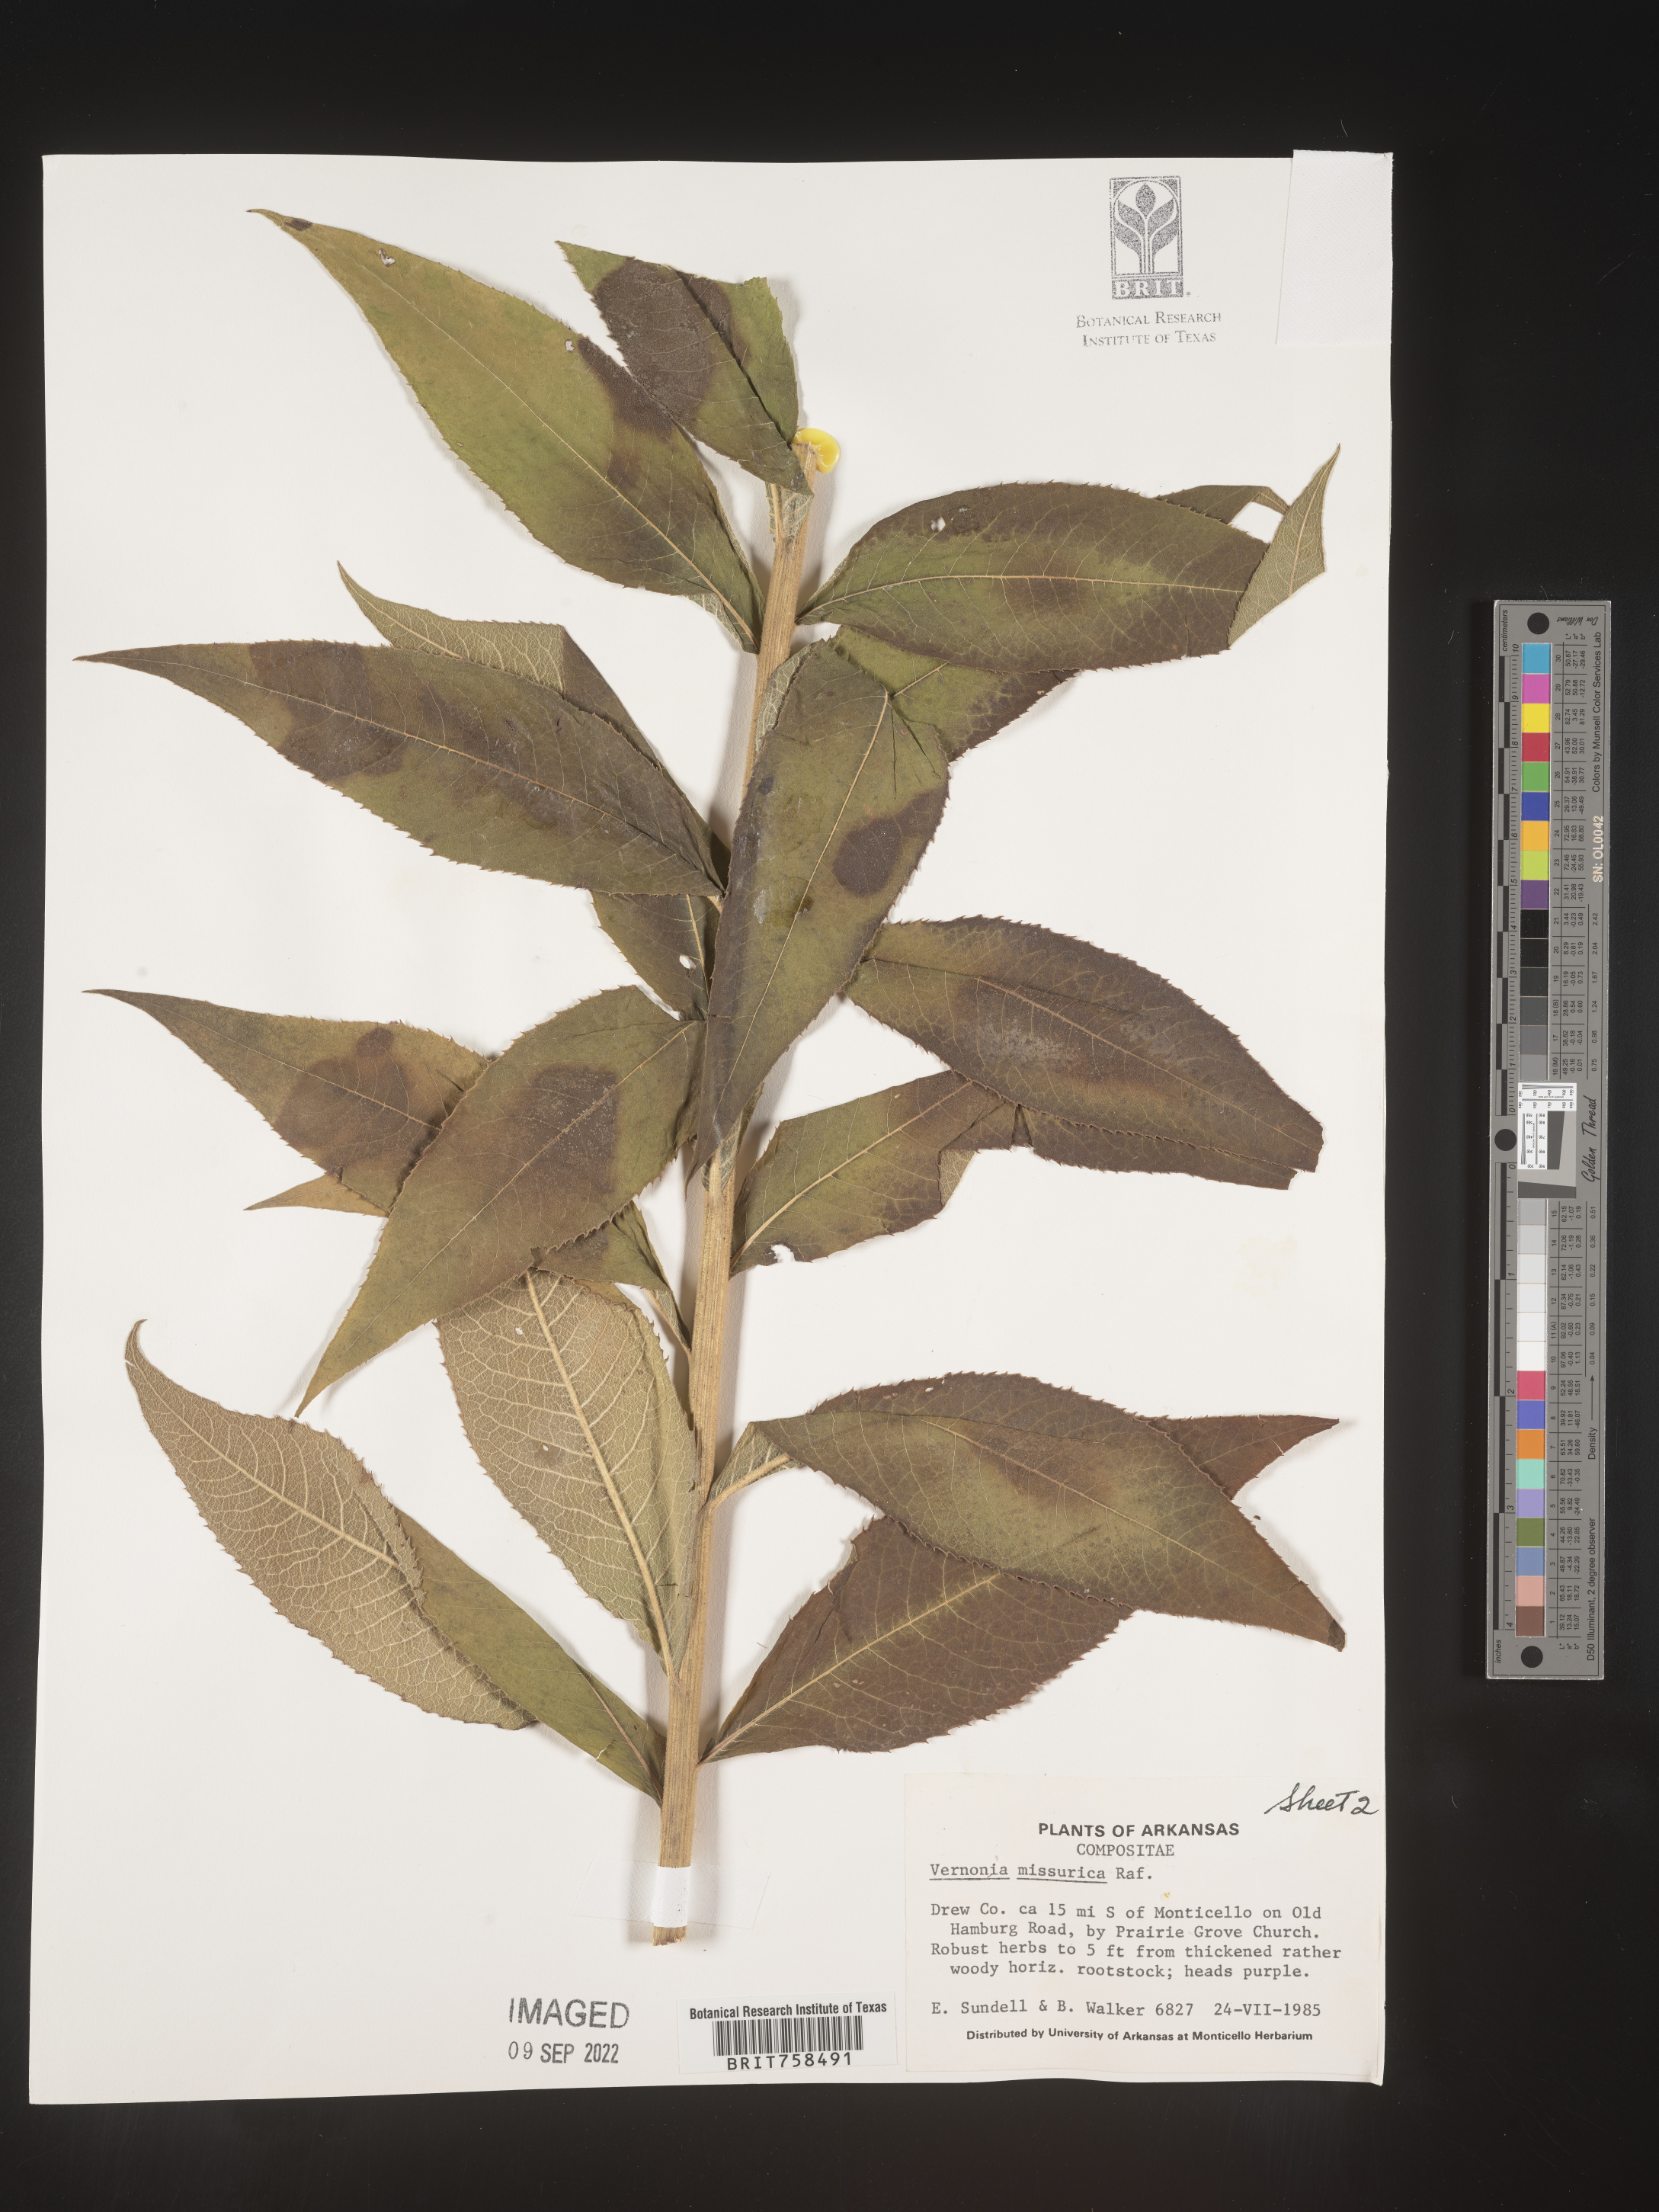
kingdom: Plantae
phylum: Tracheophyta
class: Magnoliopsida
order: Asterales
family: Asteraceae
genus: Vernonia
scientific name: Vernonia missurica
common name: Missouri ironweed
